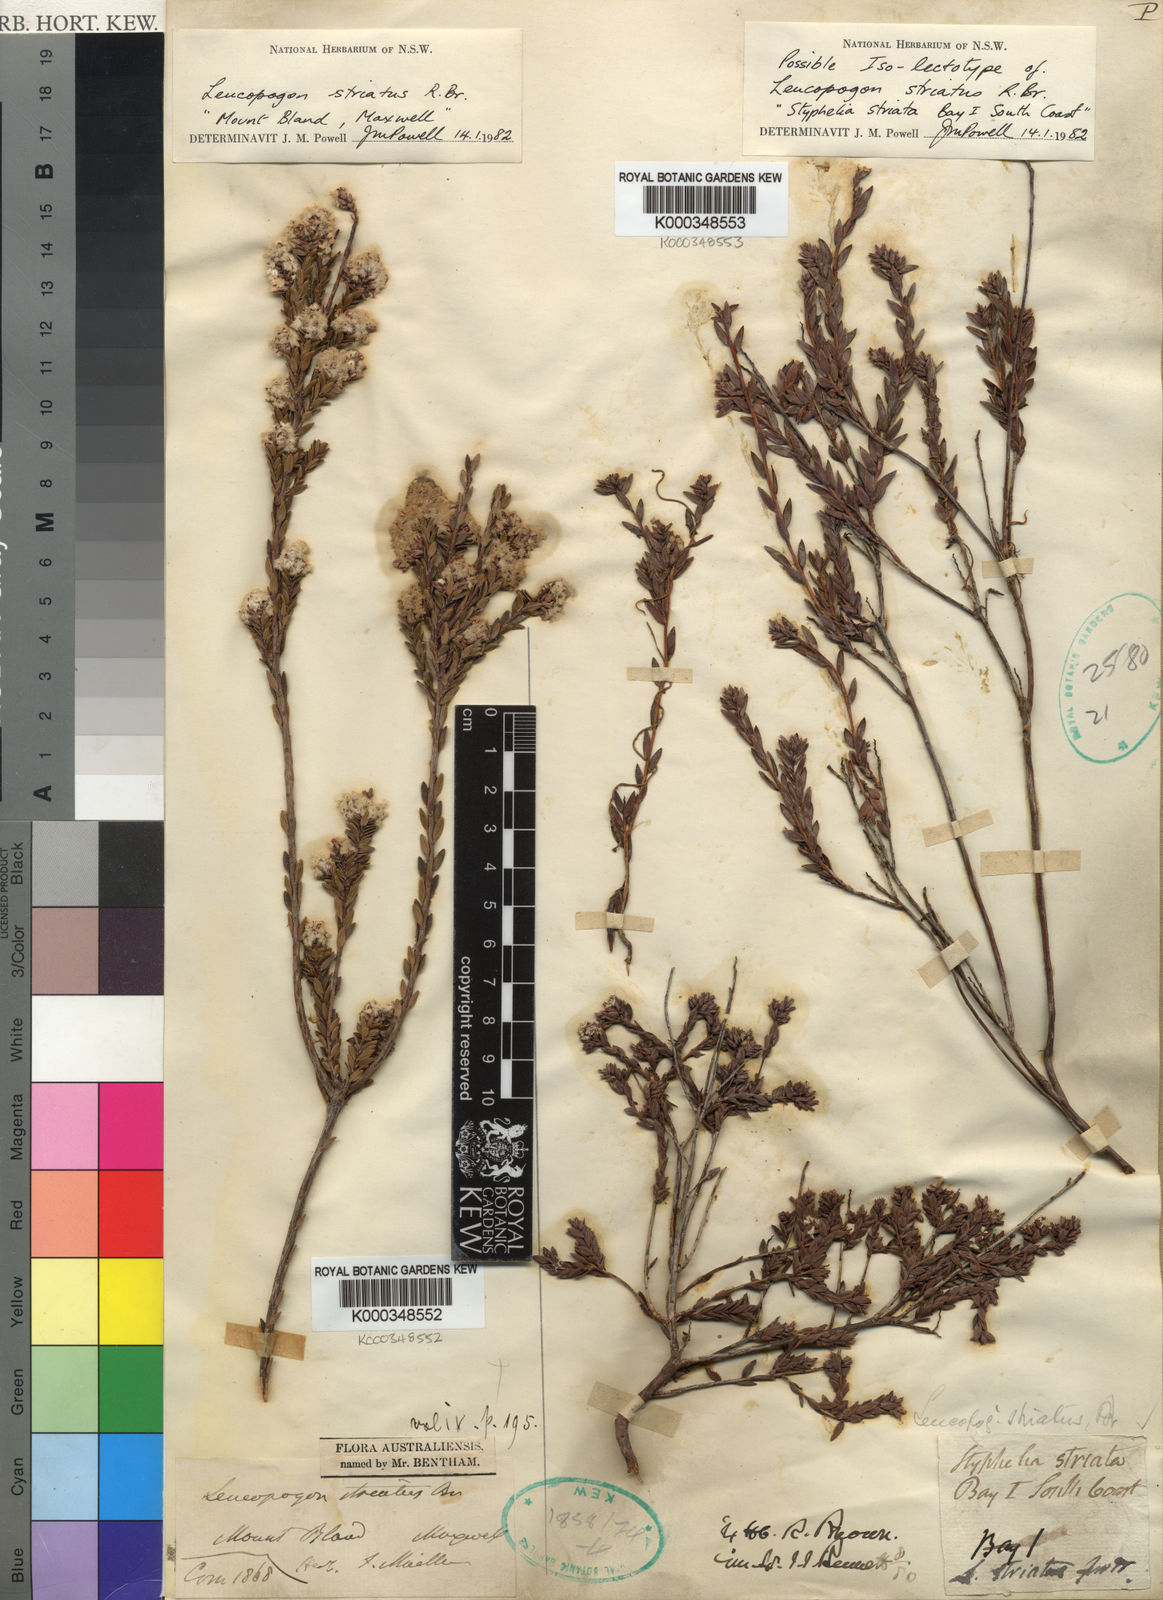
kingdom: Plantae
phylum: Tracheophyta
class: Magnoliopsida
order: Ericales
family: Ericaceae
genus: Styphelia
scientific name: Styphelia striata
